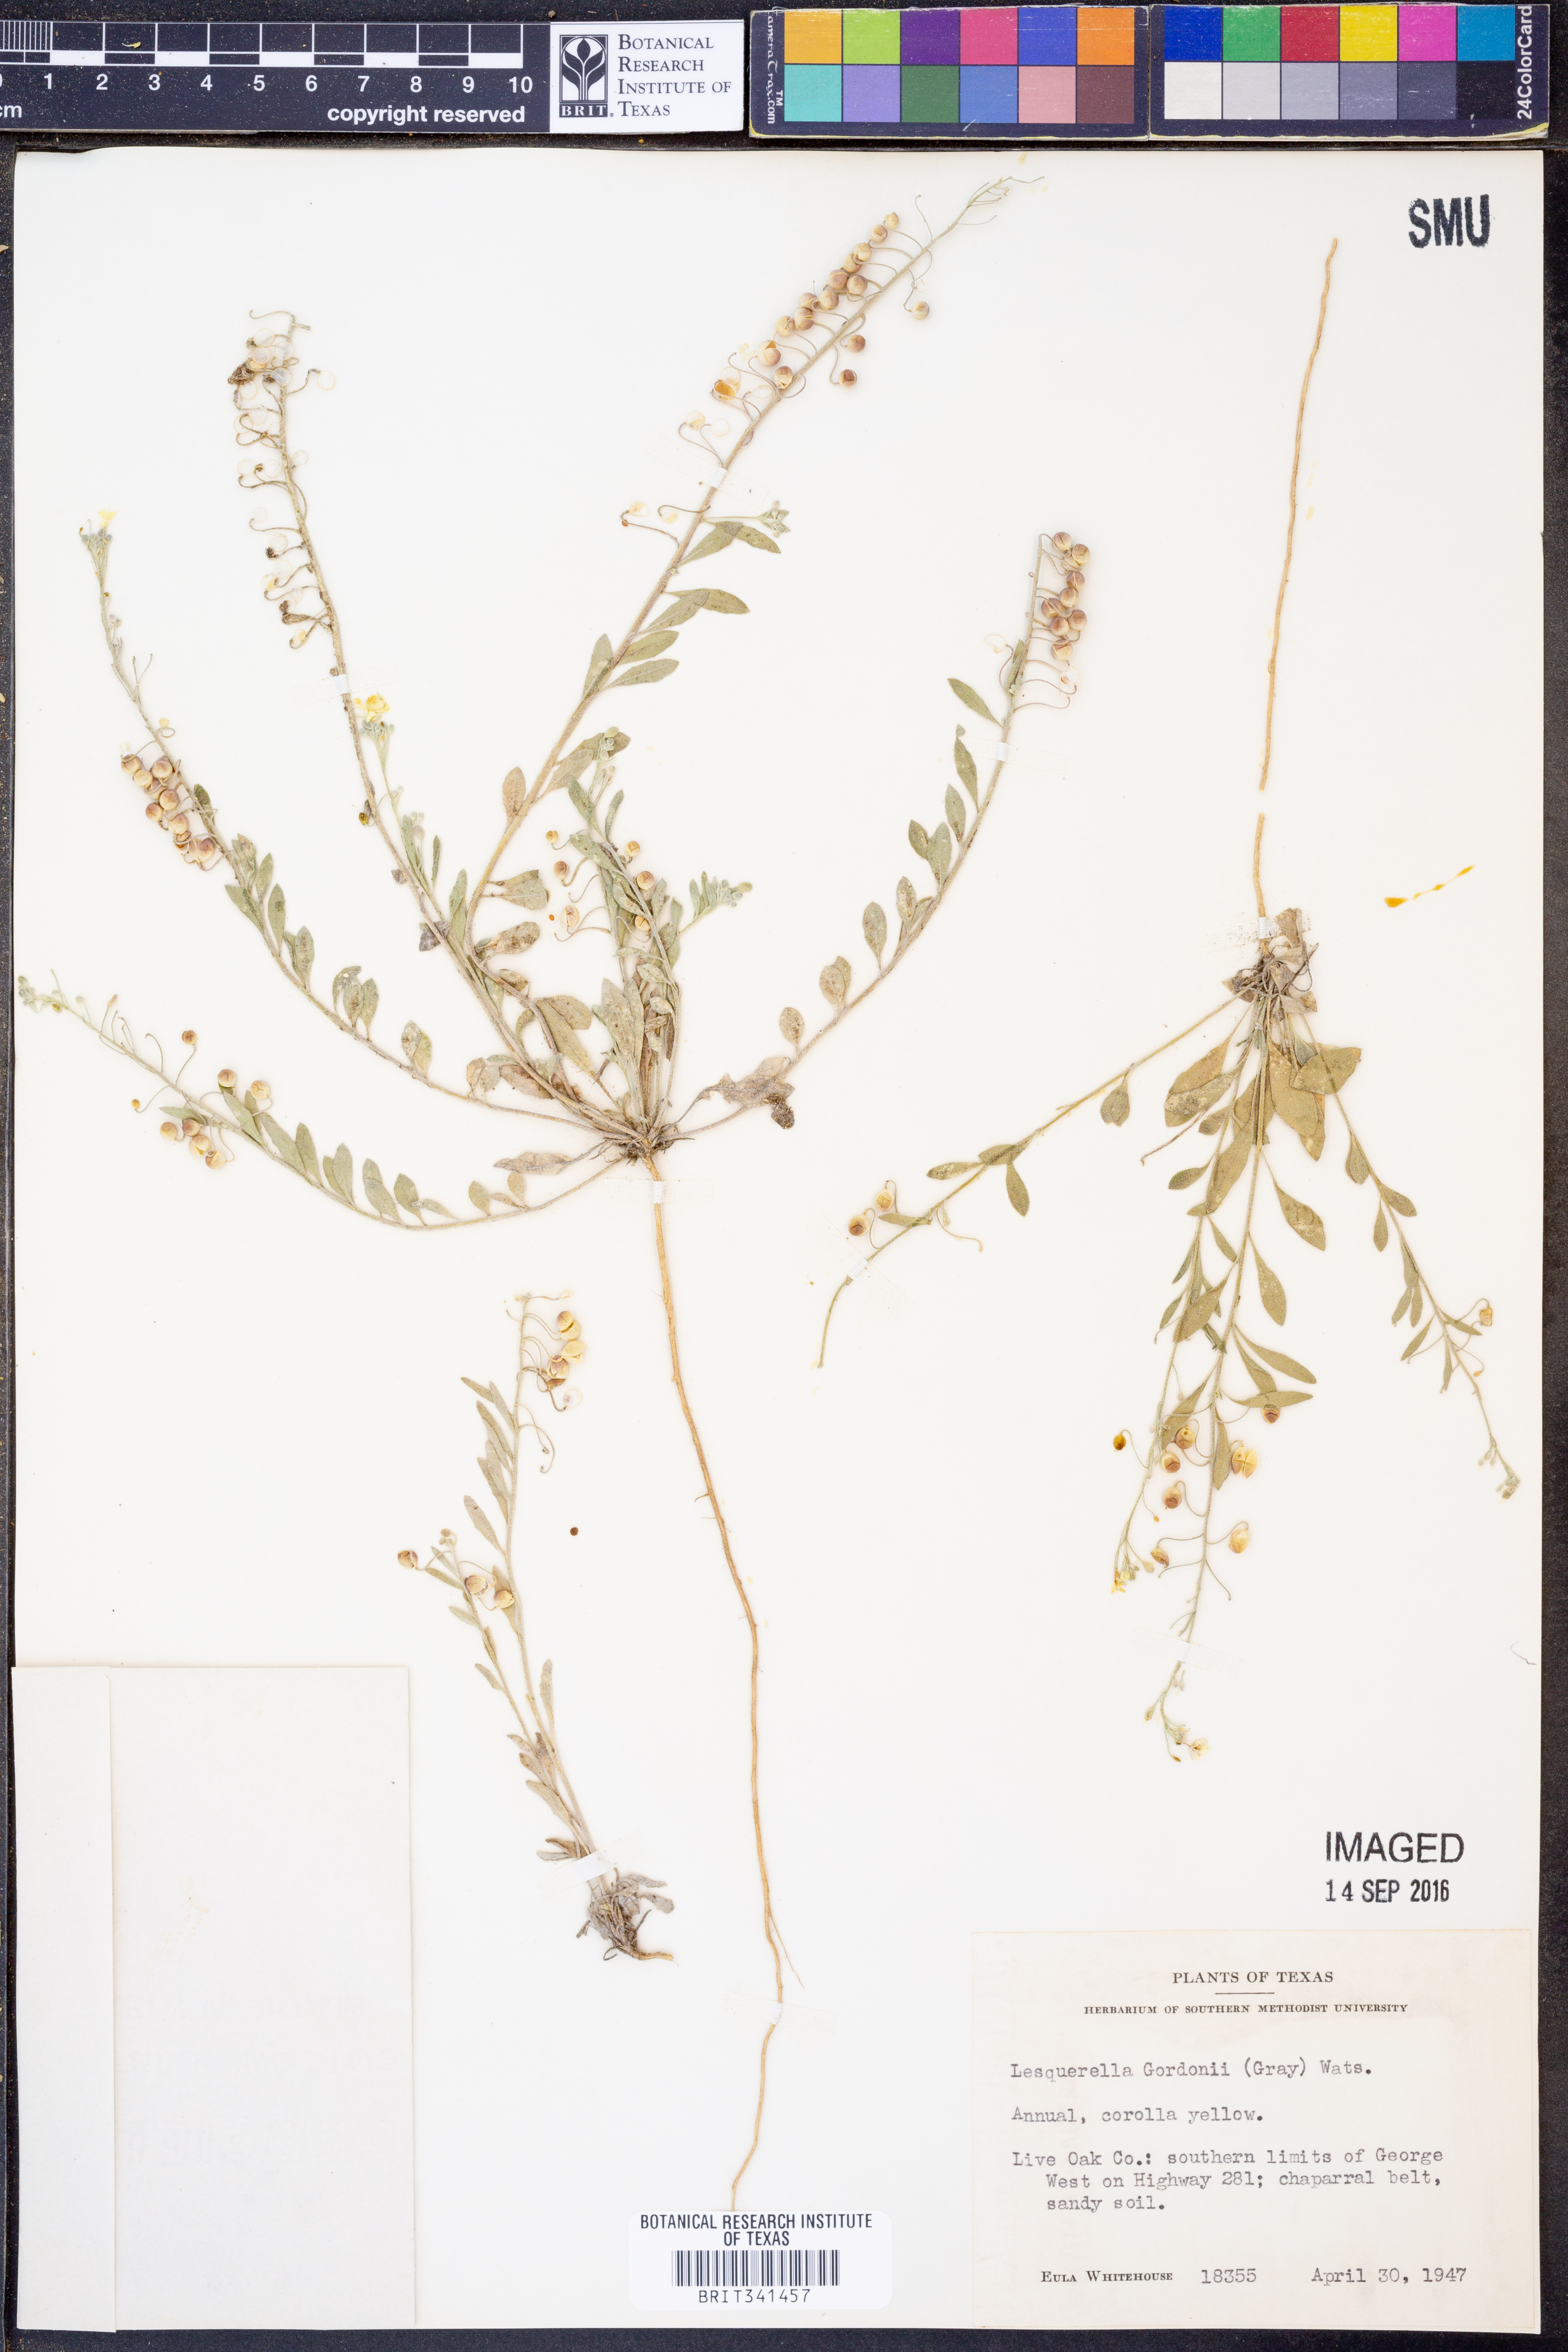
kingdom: Plantae
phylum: Tracheophyta
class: Magnoliopsida
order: Brassicales
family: Brassicaceae
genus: Physaria
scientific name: Physaria gordonii
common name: Gordon's bladderpod
